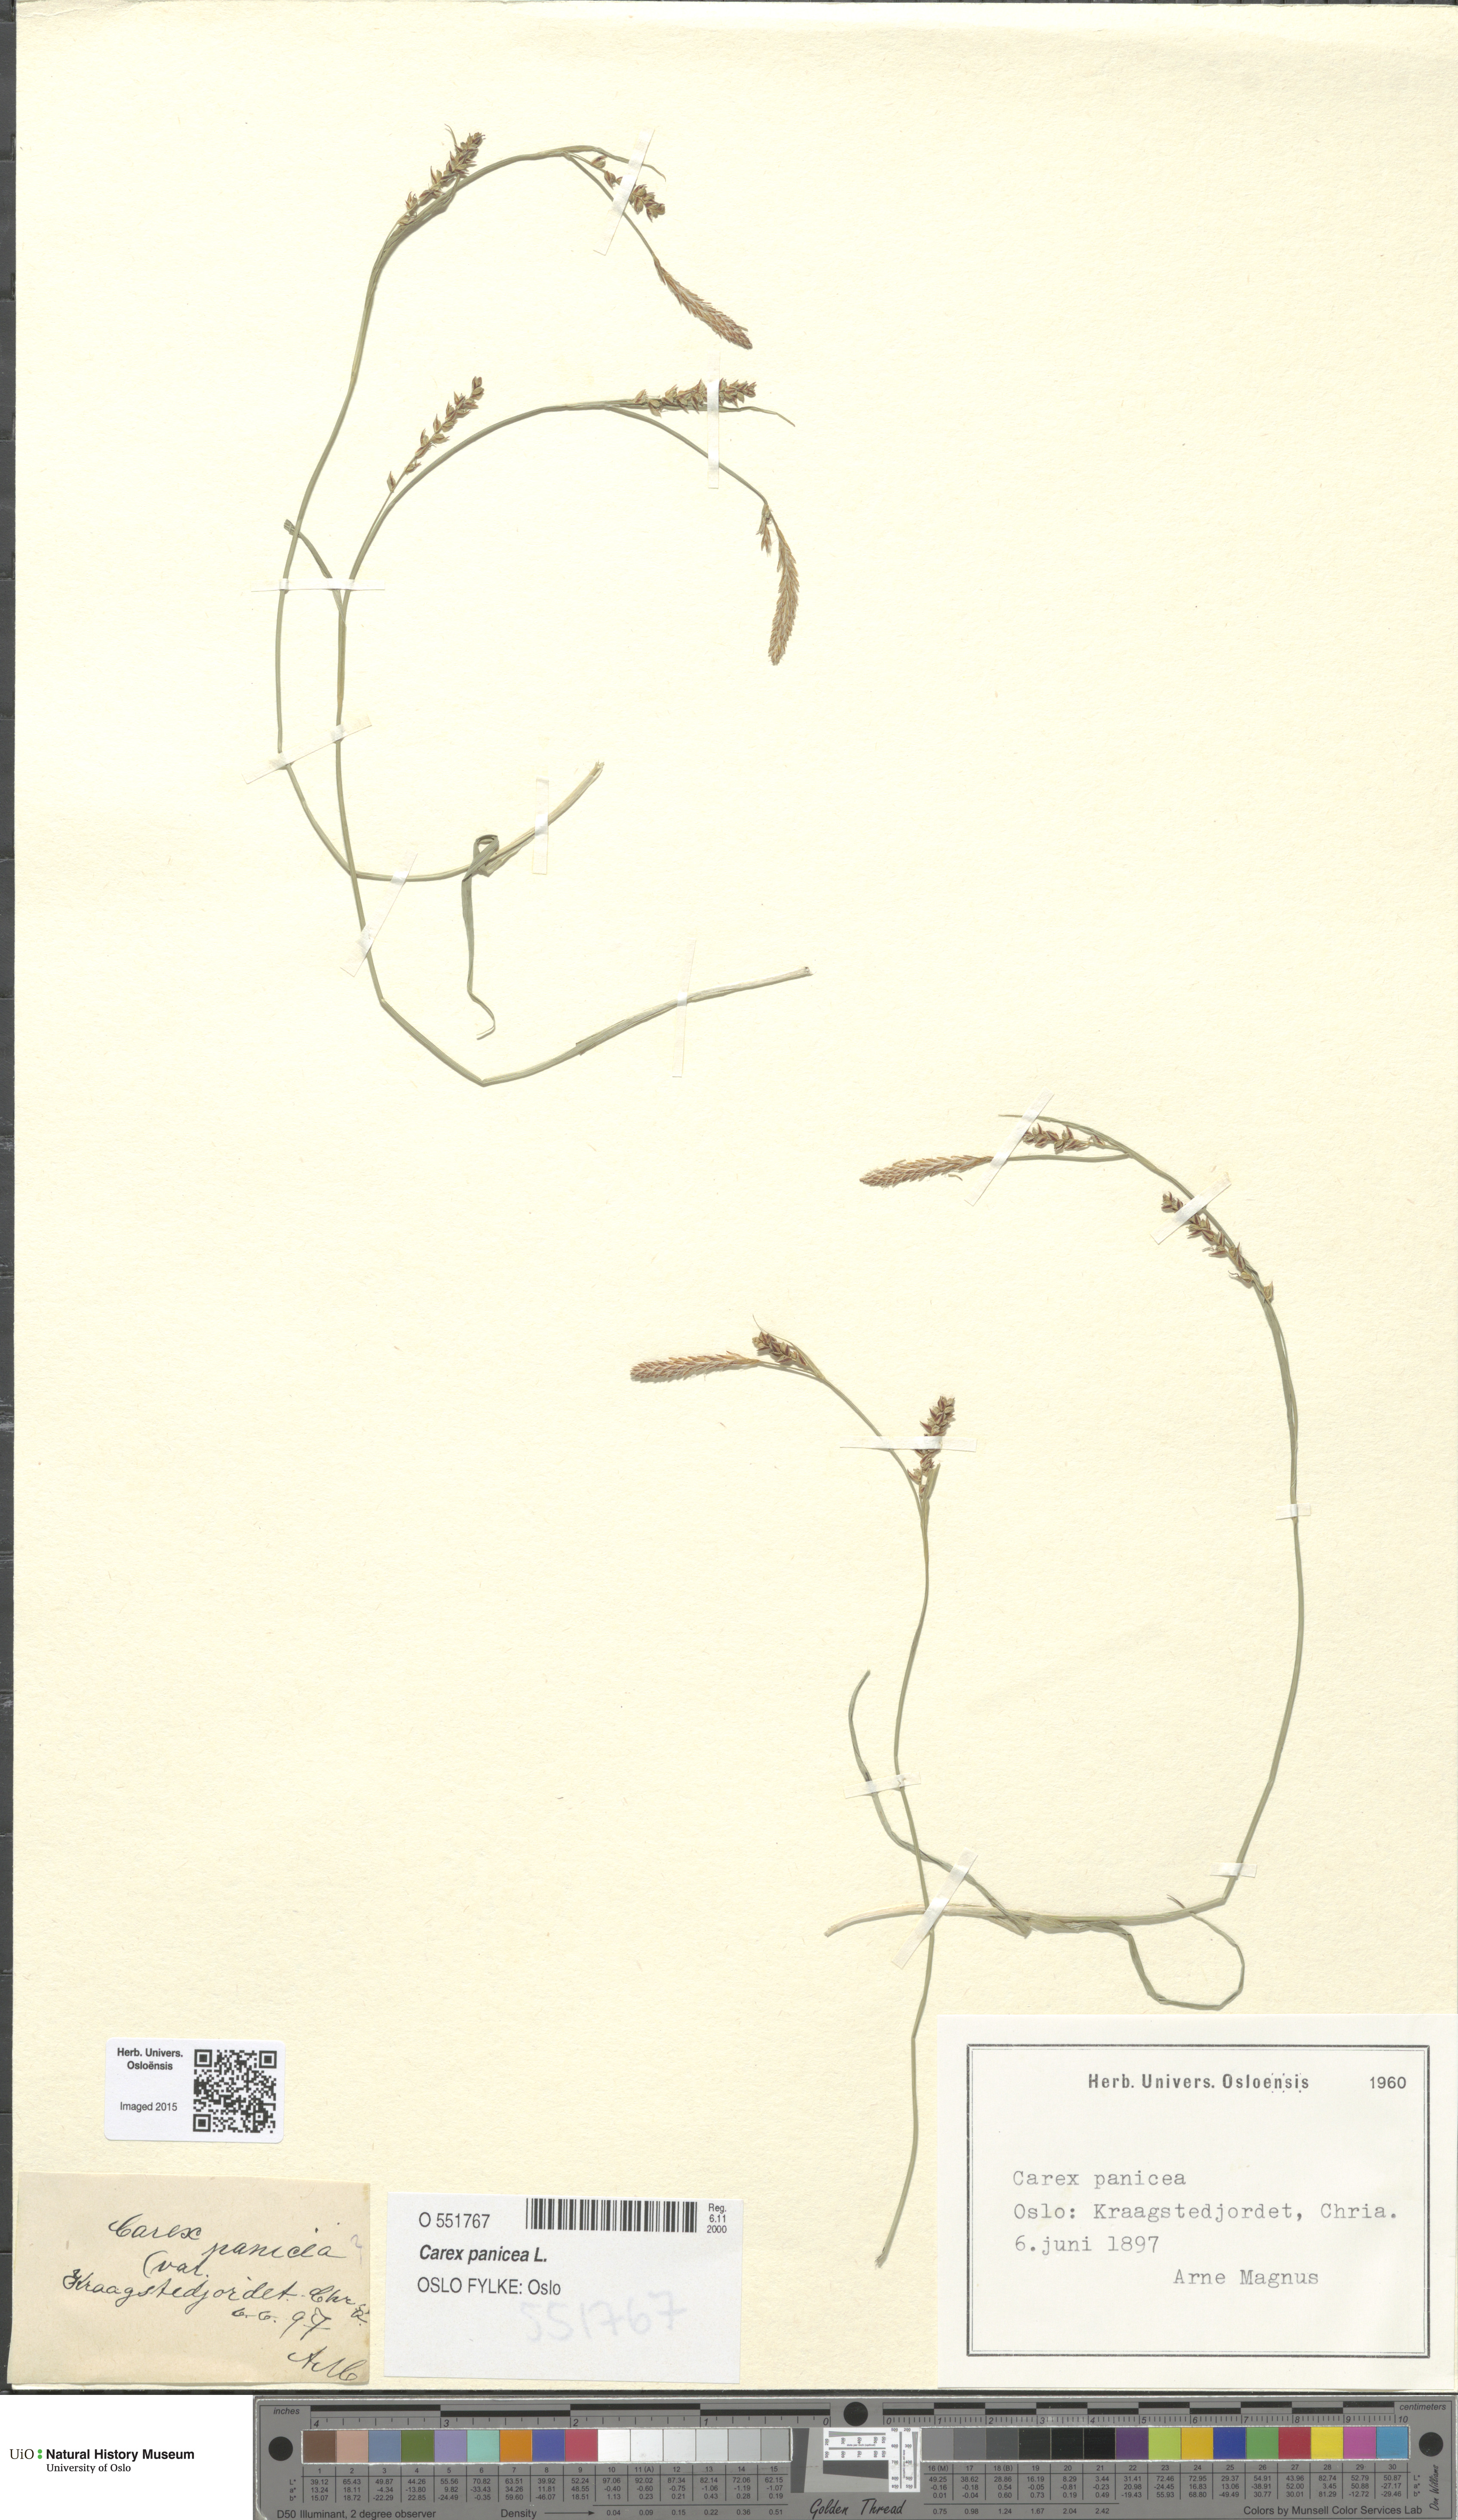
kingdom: Plantae
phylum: Tracheophyta
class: Liliopsida
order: Poales
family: Cyperaceae
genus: Carex
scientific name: Carex panicea
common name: Carnation sedge
